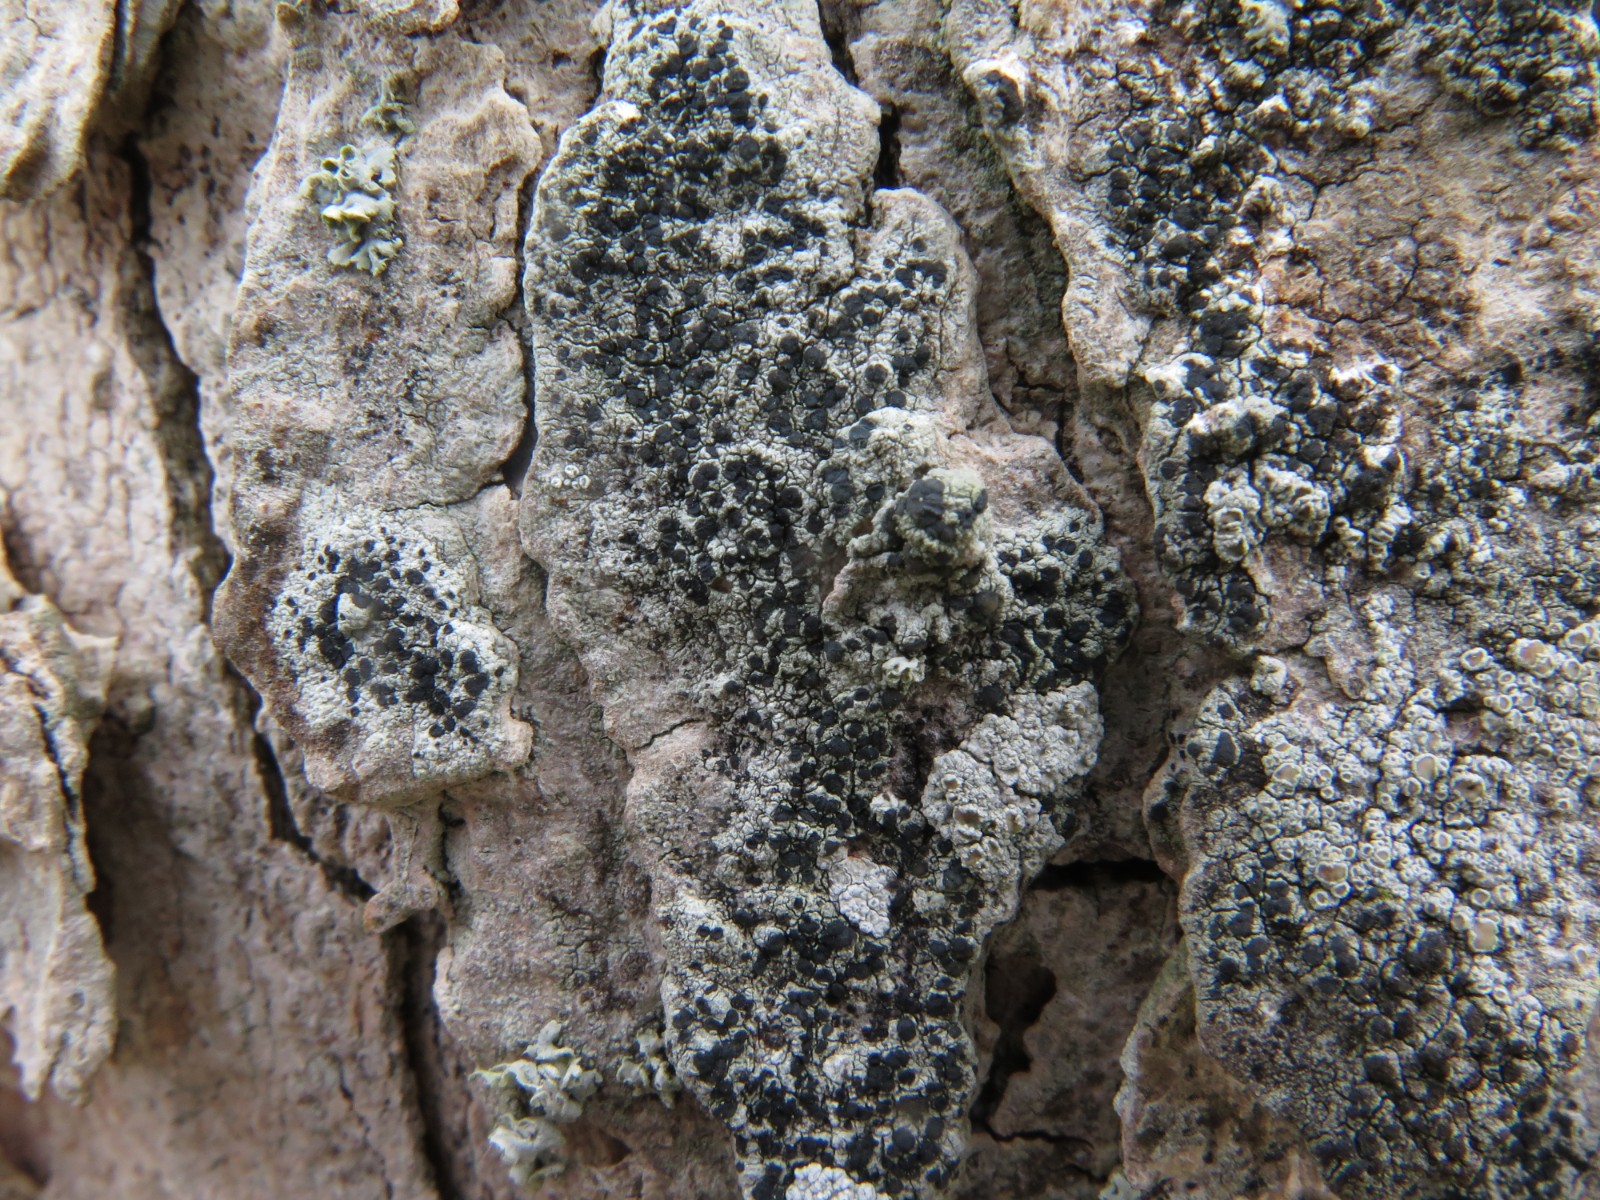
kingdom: Fungi
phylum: Ascomycota
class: Lecanoromycetes
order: Lecanorales
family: Lecanoraceae
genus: Lecidella
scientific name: Lecidella elaeochroma
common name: grågrøn skivelav
